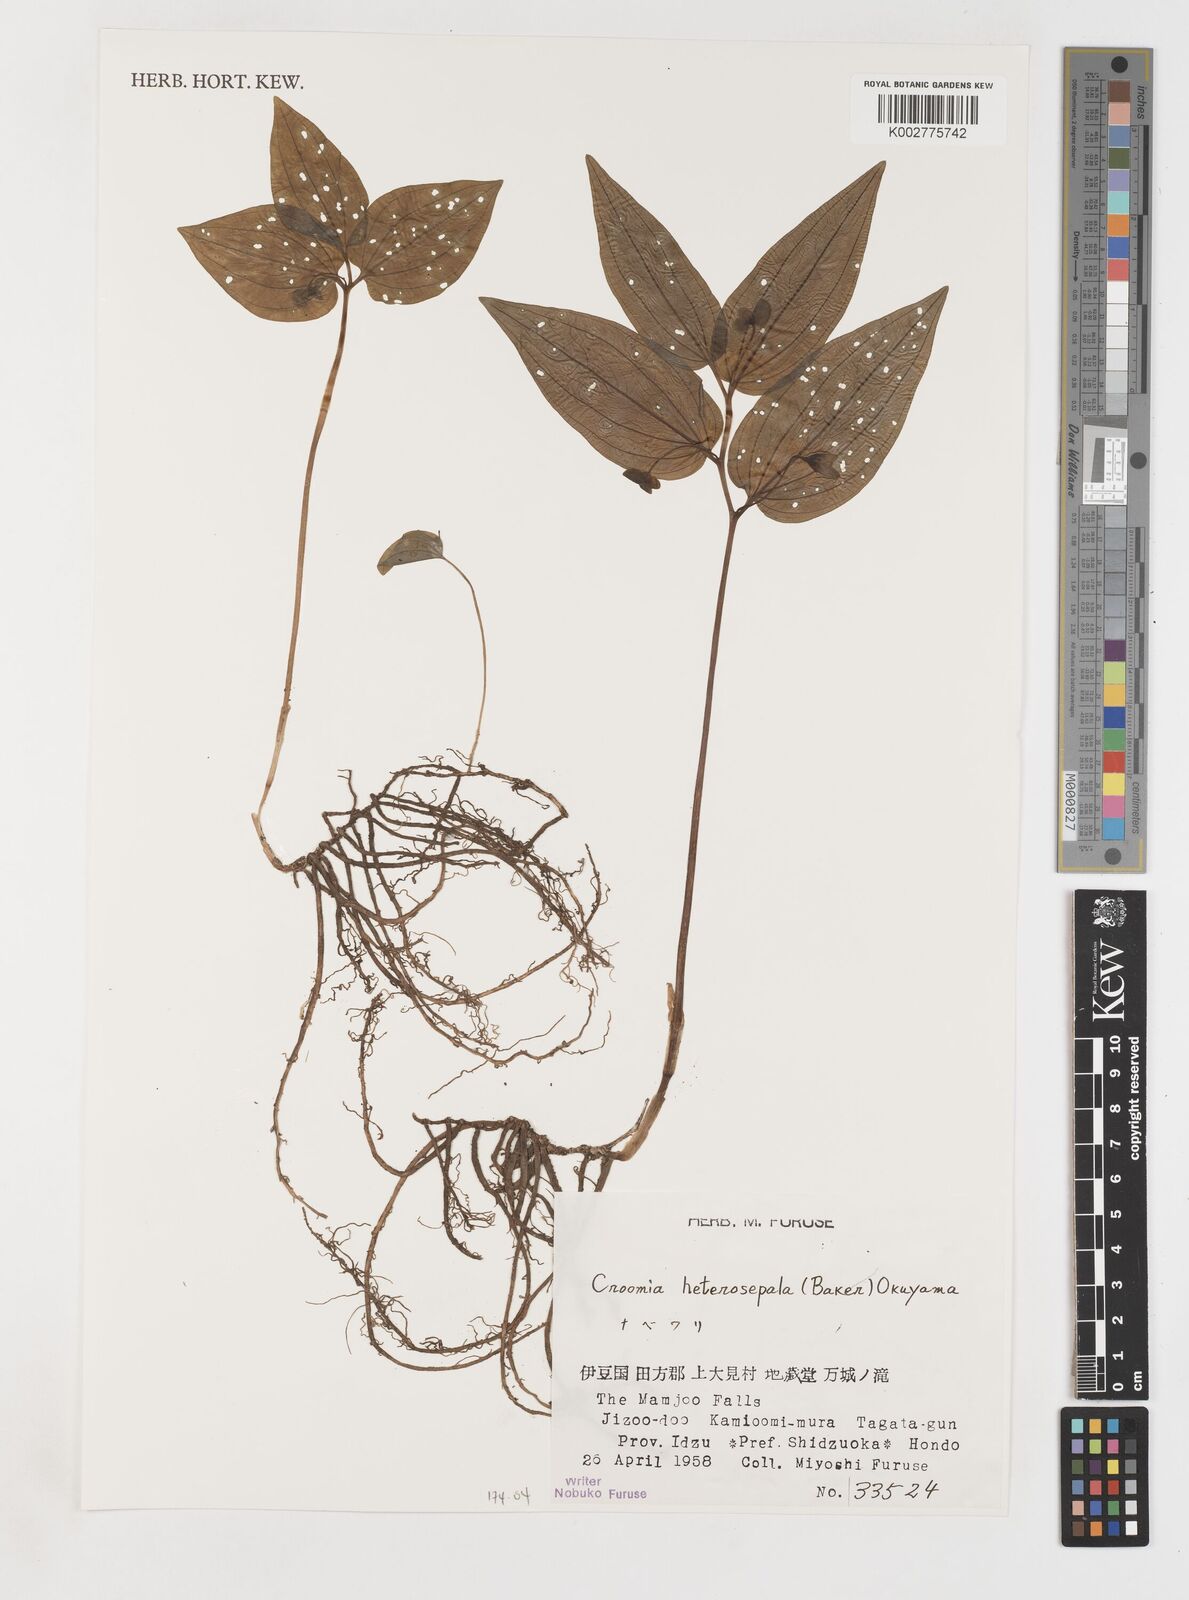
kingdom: Plantae
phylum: Tracheophyta
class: Liliopsida
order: Pandanales
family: Stemonaceae
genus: Croomia
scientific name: Croomia heterosepala
